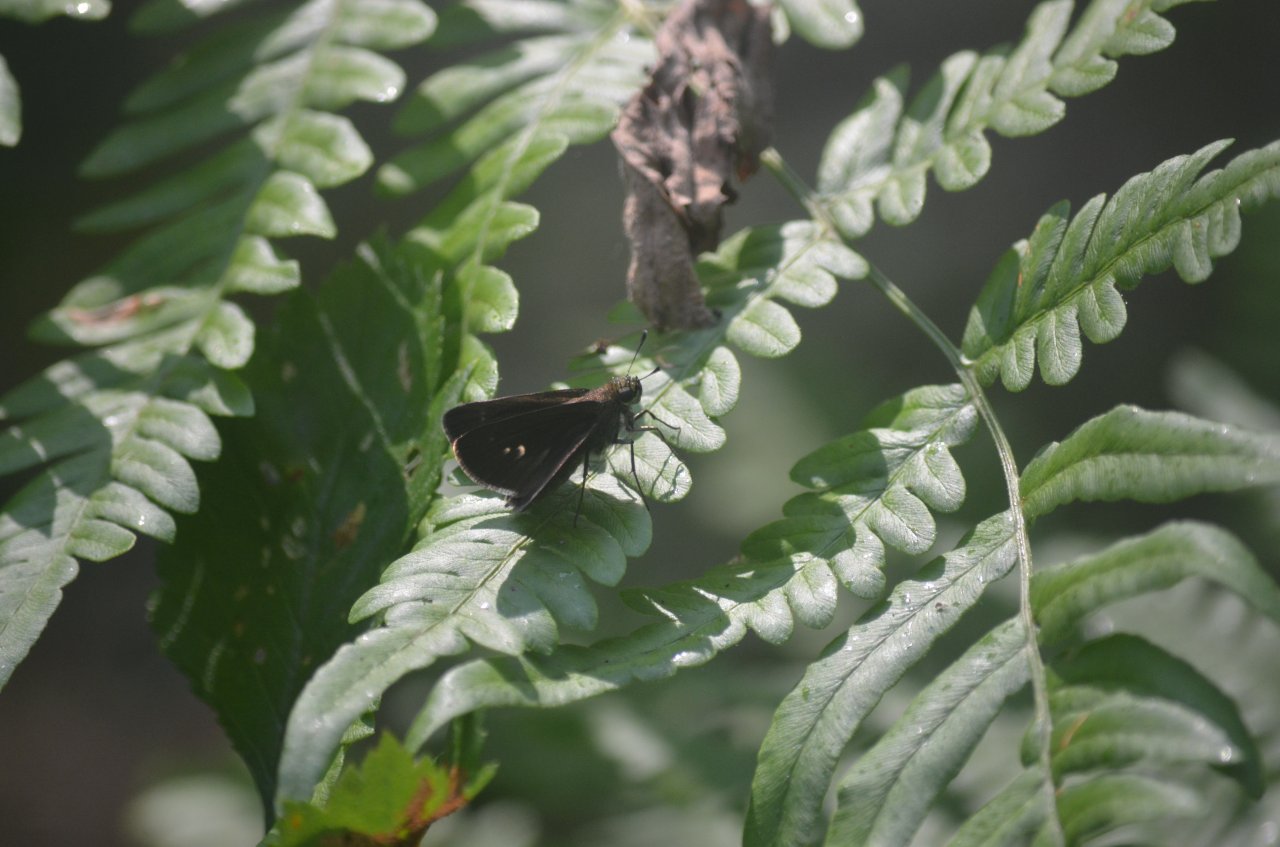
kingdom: Animalia
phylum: Arthropoda
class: Insecta
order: Lepidoptera
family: Hesperiidae
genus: Euphyes
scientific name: Euphyes vestris
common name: Dun Skipper
